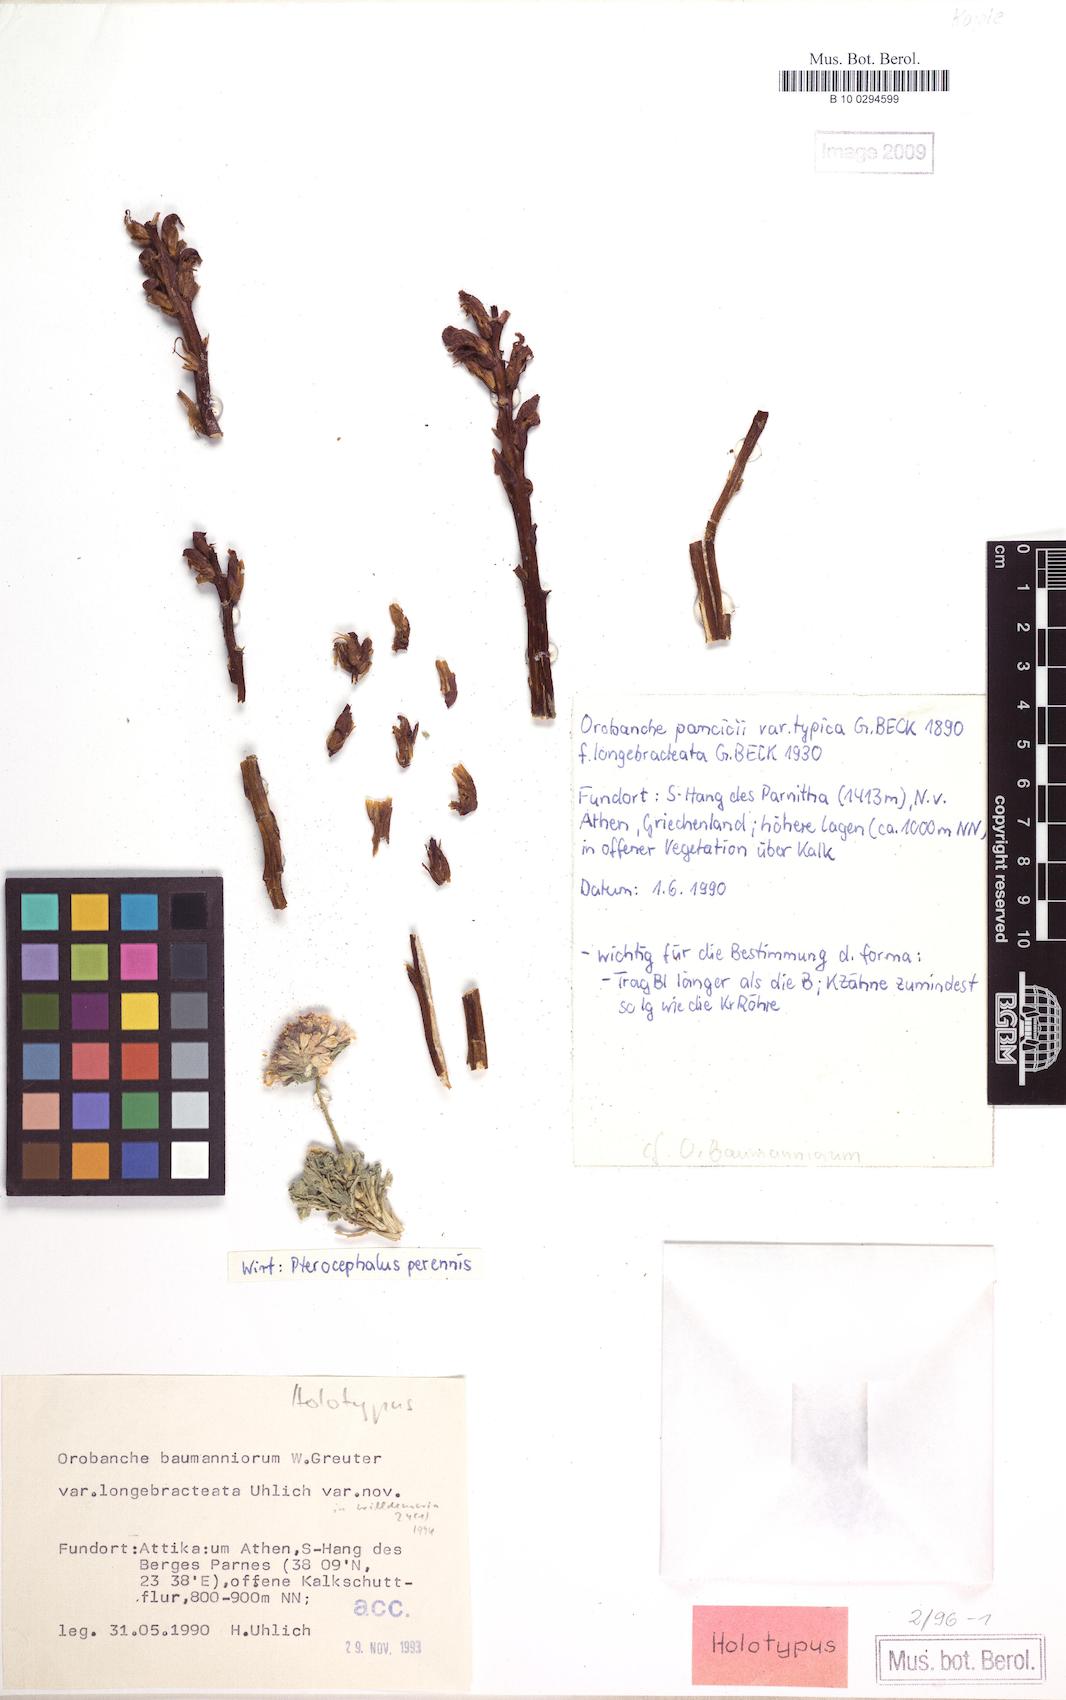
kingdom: Plantae
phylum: Tracheophyta
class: Magnoliopsida
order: Lamiales
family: Orobanchaceae
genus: Orobanche
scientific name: Orobanche baumanniorum
